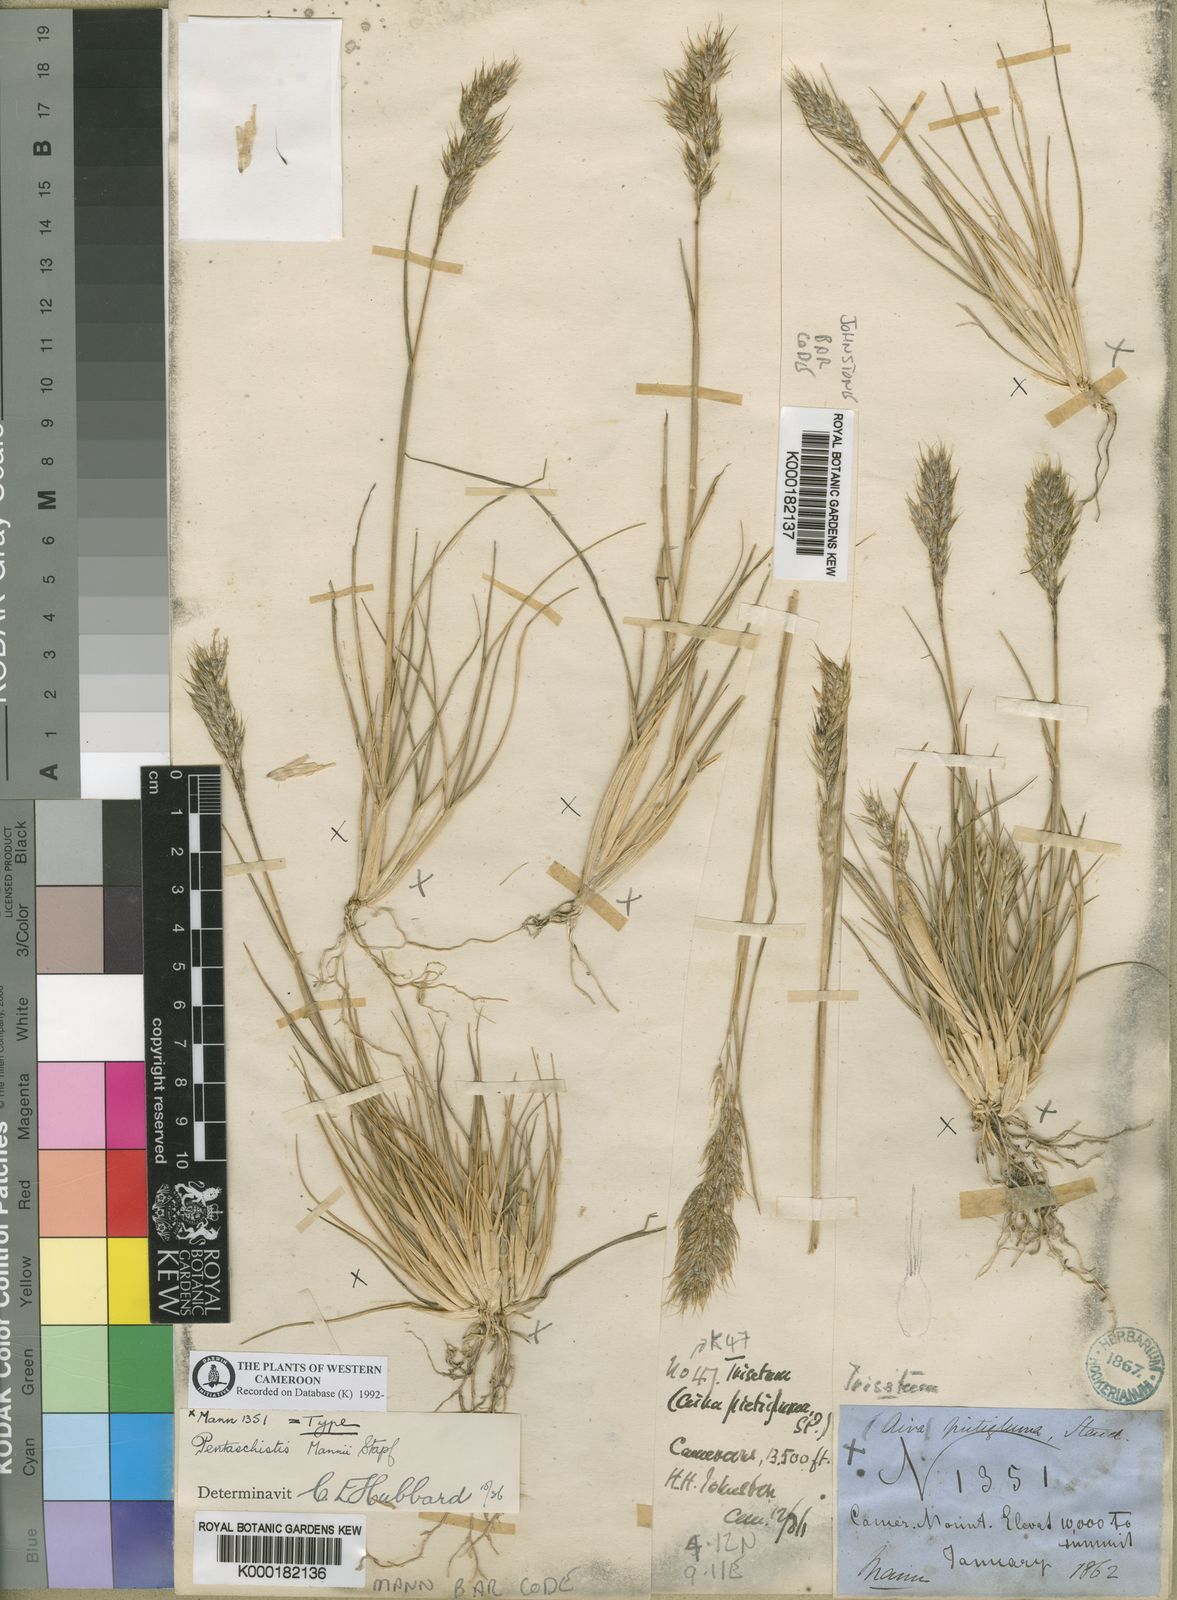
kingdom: Plantae
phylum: Tracheophyta
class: Liliopsida
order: Poales
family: Poaceae
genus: Pentameris
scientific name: Pentameris pictigluma
